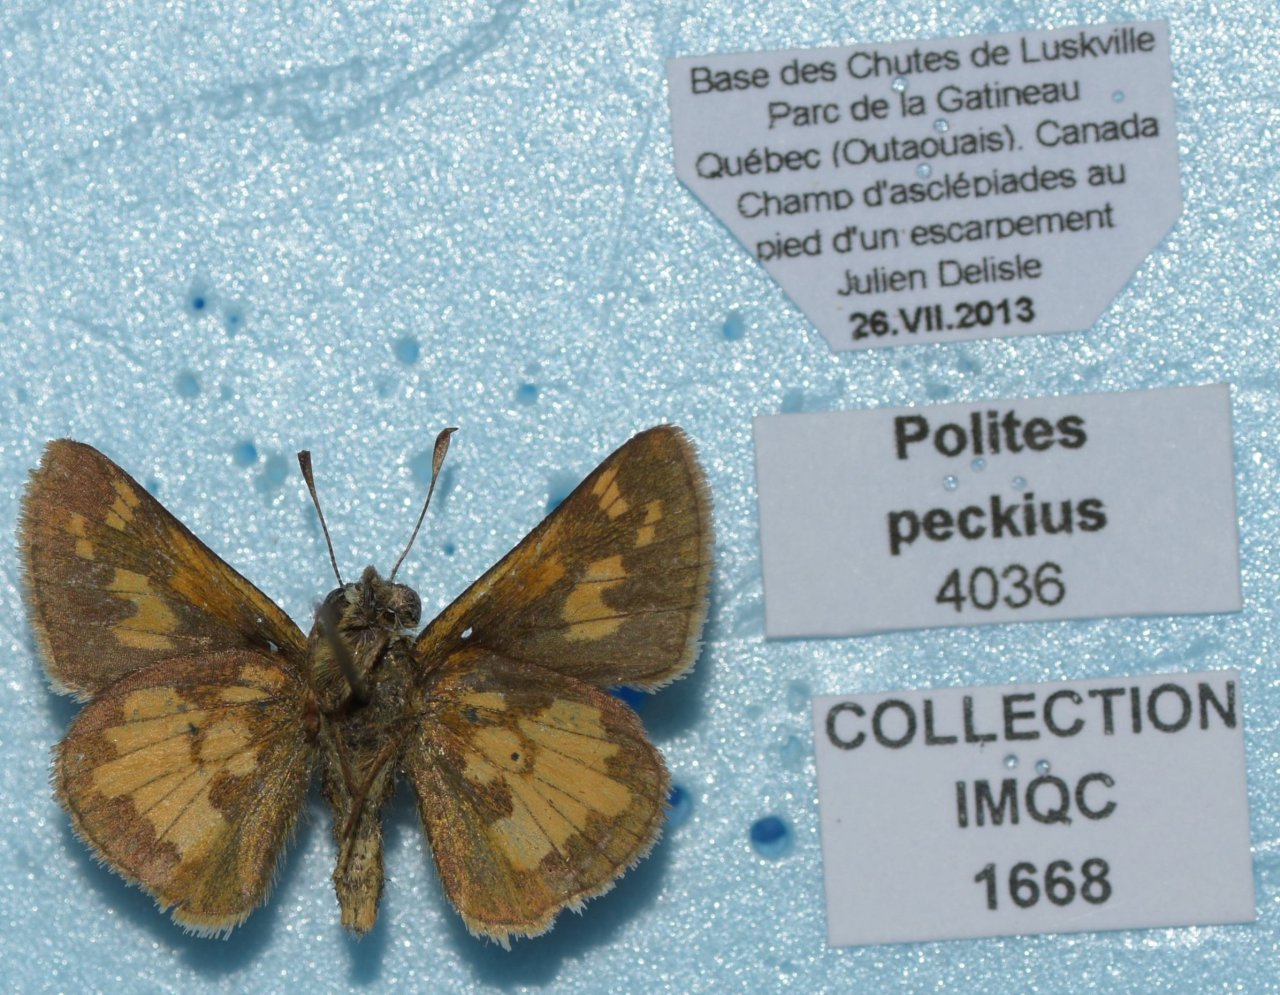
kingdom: Animalia
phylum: Arthropoda
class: Insecta
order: Lepidoptera
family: Hesperiidae
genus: Polites
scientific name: Polites coras
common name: Peck's Skipper
